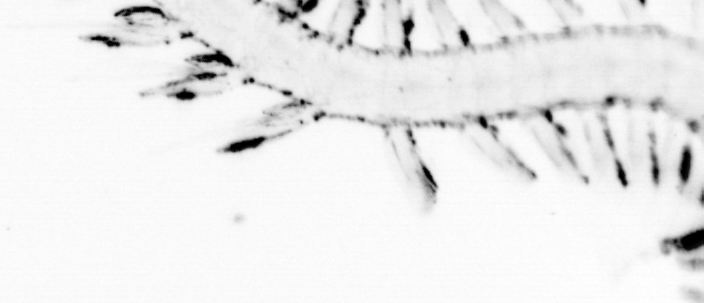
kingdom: Animalia
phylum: Annelida
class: Polychaeta
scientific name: Polychaeta
